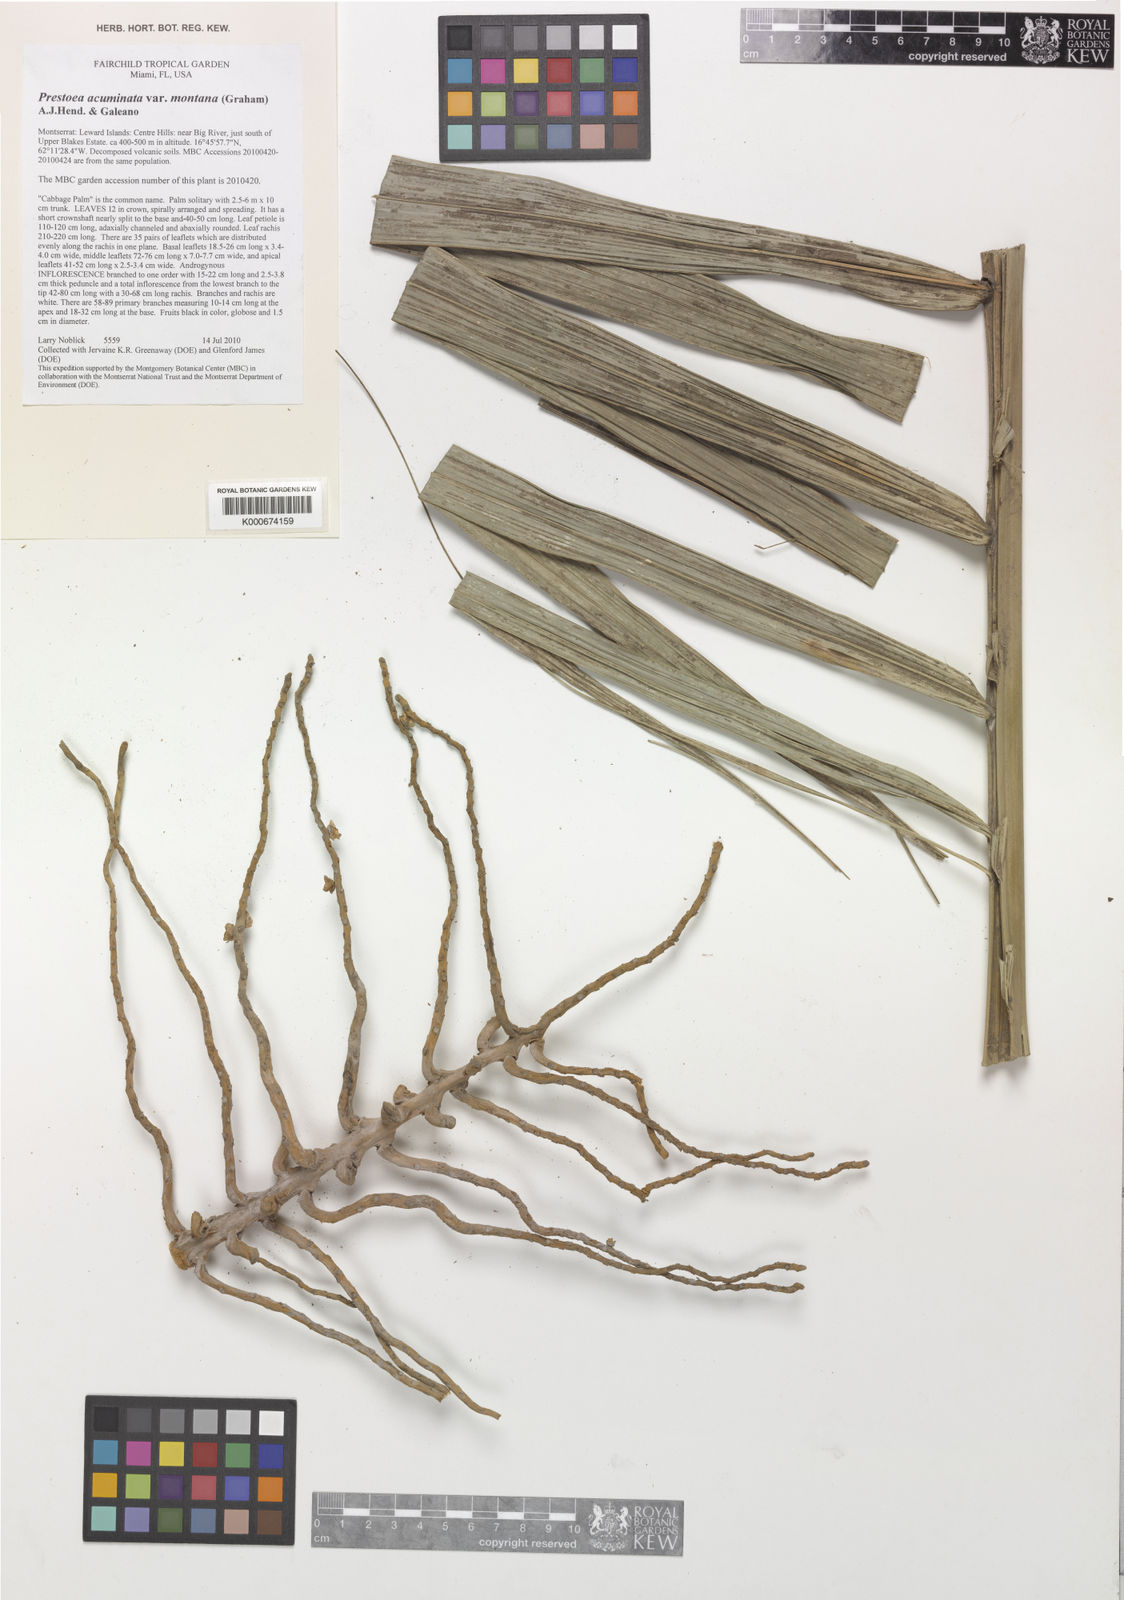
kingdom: Plantae
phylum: Tracheophyta
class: Liliopsida
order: Arecales
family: Arecaceae
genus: Prestoea
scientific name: Prestoea acuminata
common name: Sierran palm
